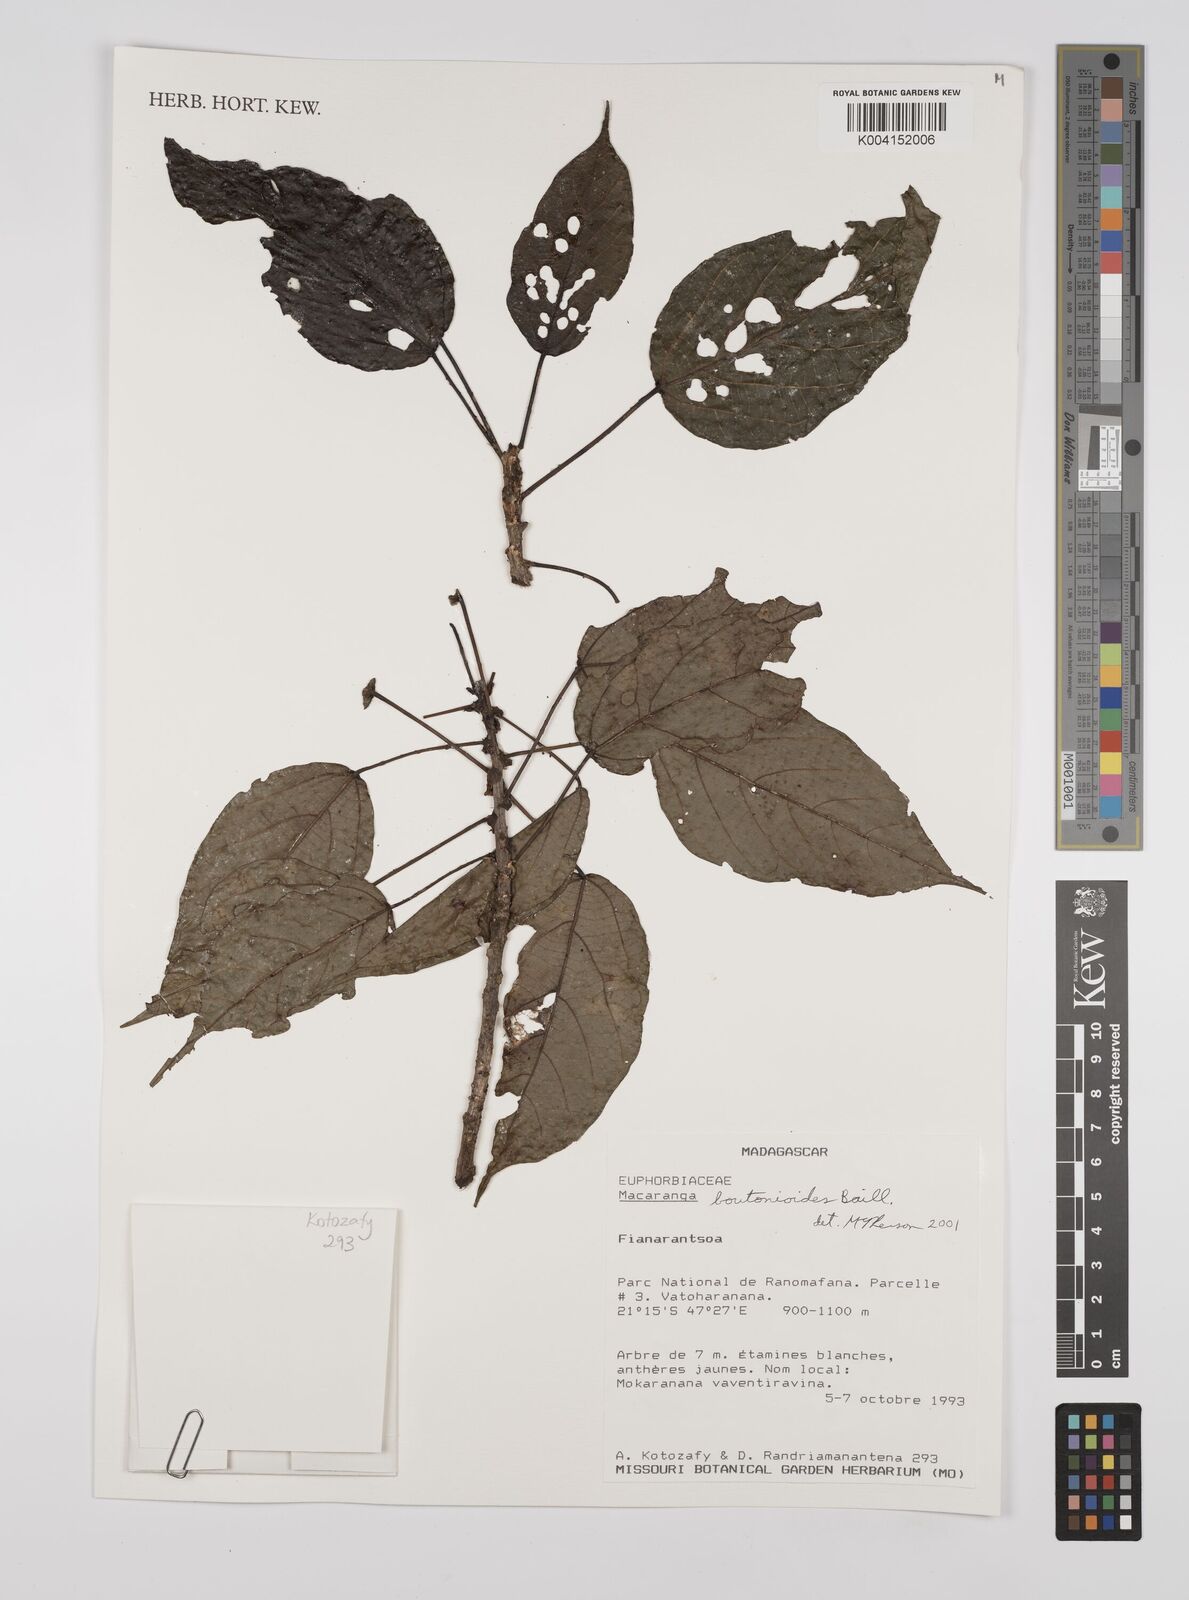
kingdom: Plantae
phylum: Tracheophyta
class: Magnoliopsida
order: Malpighiales
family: Euphorbiaceae
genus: Macaranga
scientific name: Macaranga
